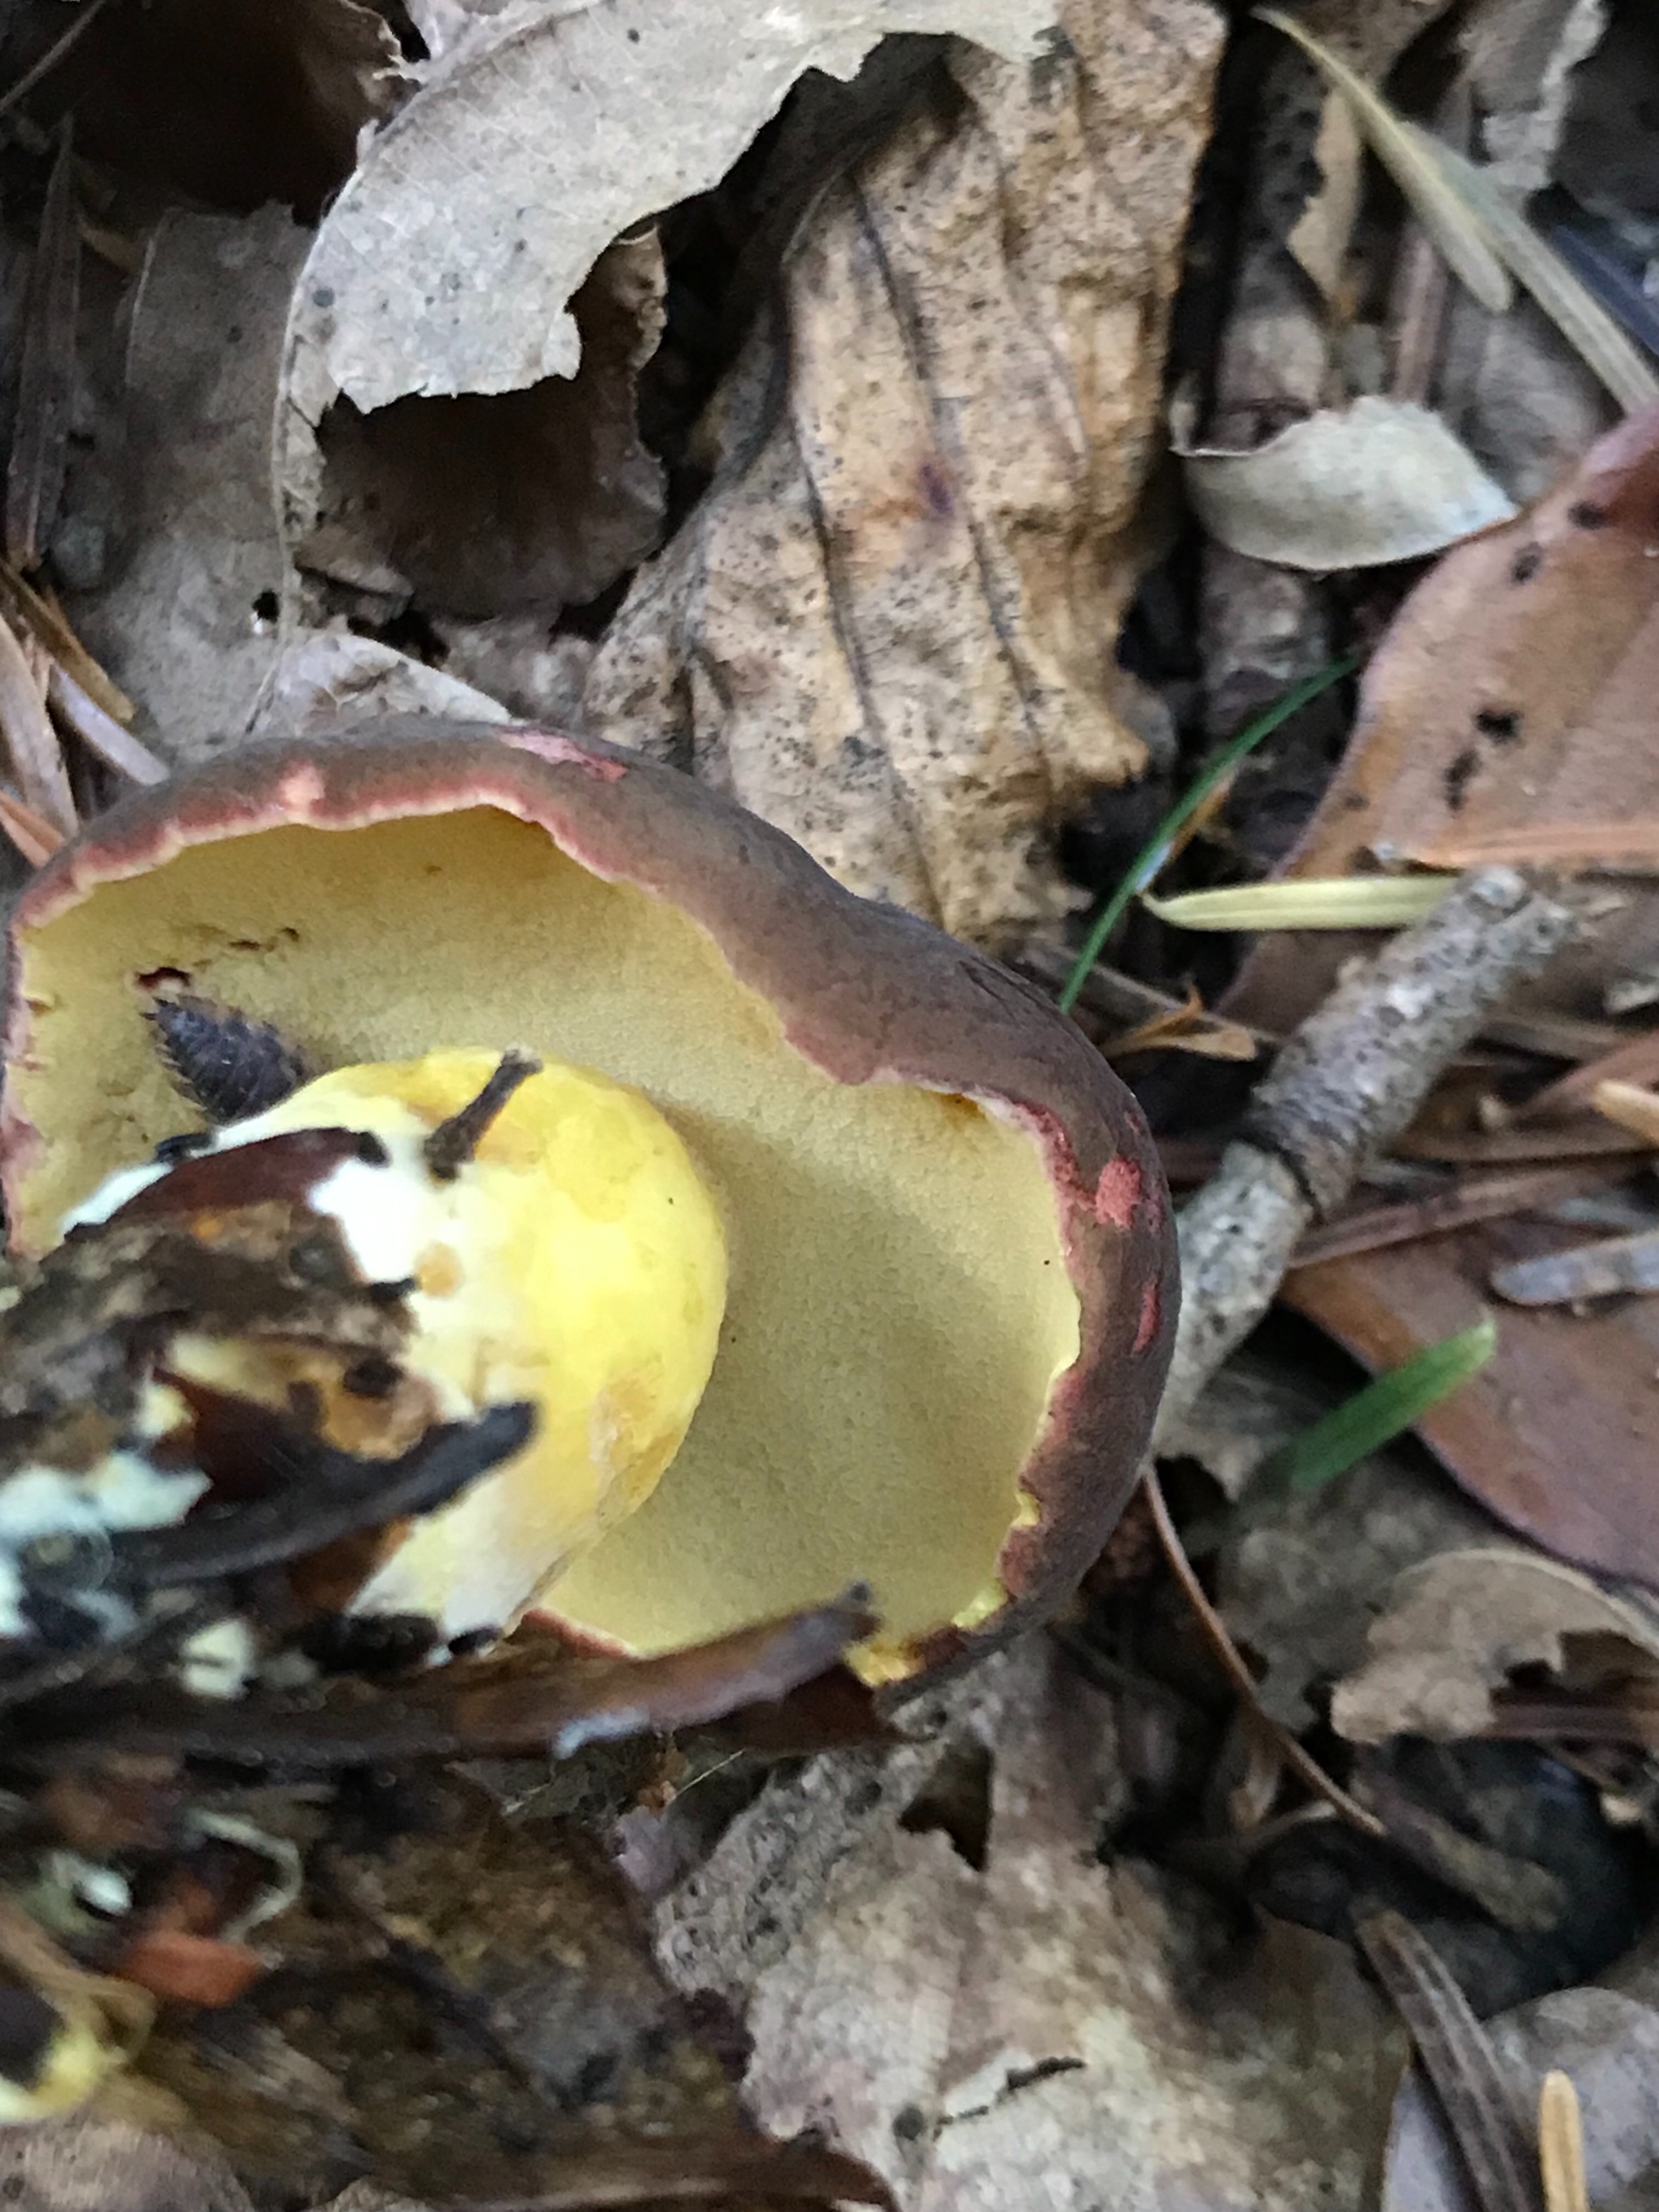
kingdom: Fungi
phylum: Basidiomycota
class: Agaricomycetes
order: Boletales
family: Boletaceae
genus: Xerocomellus
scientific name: Xerocomellus pruinatus
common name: dugget rørhat
